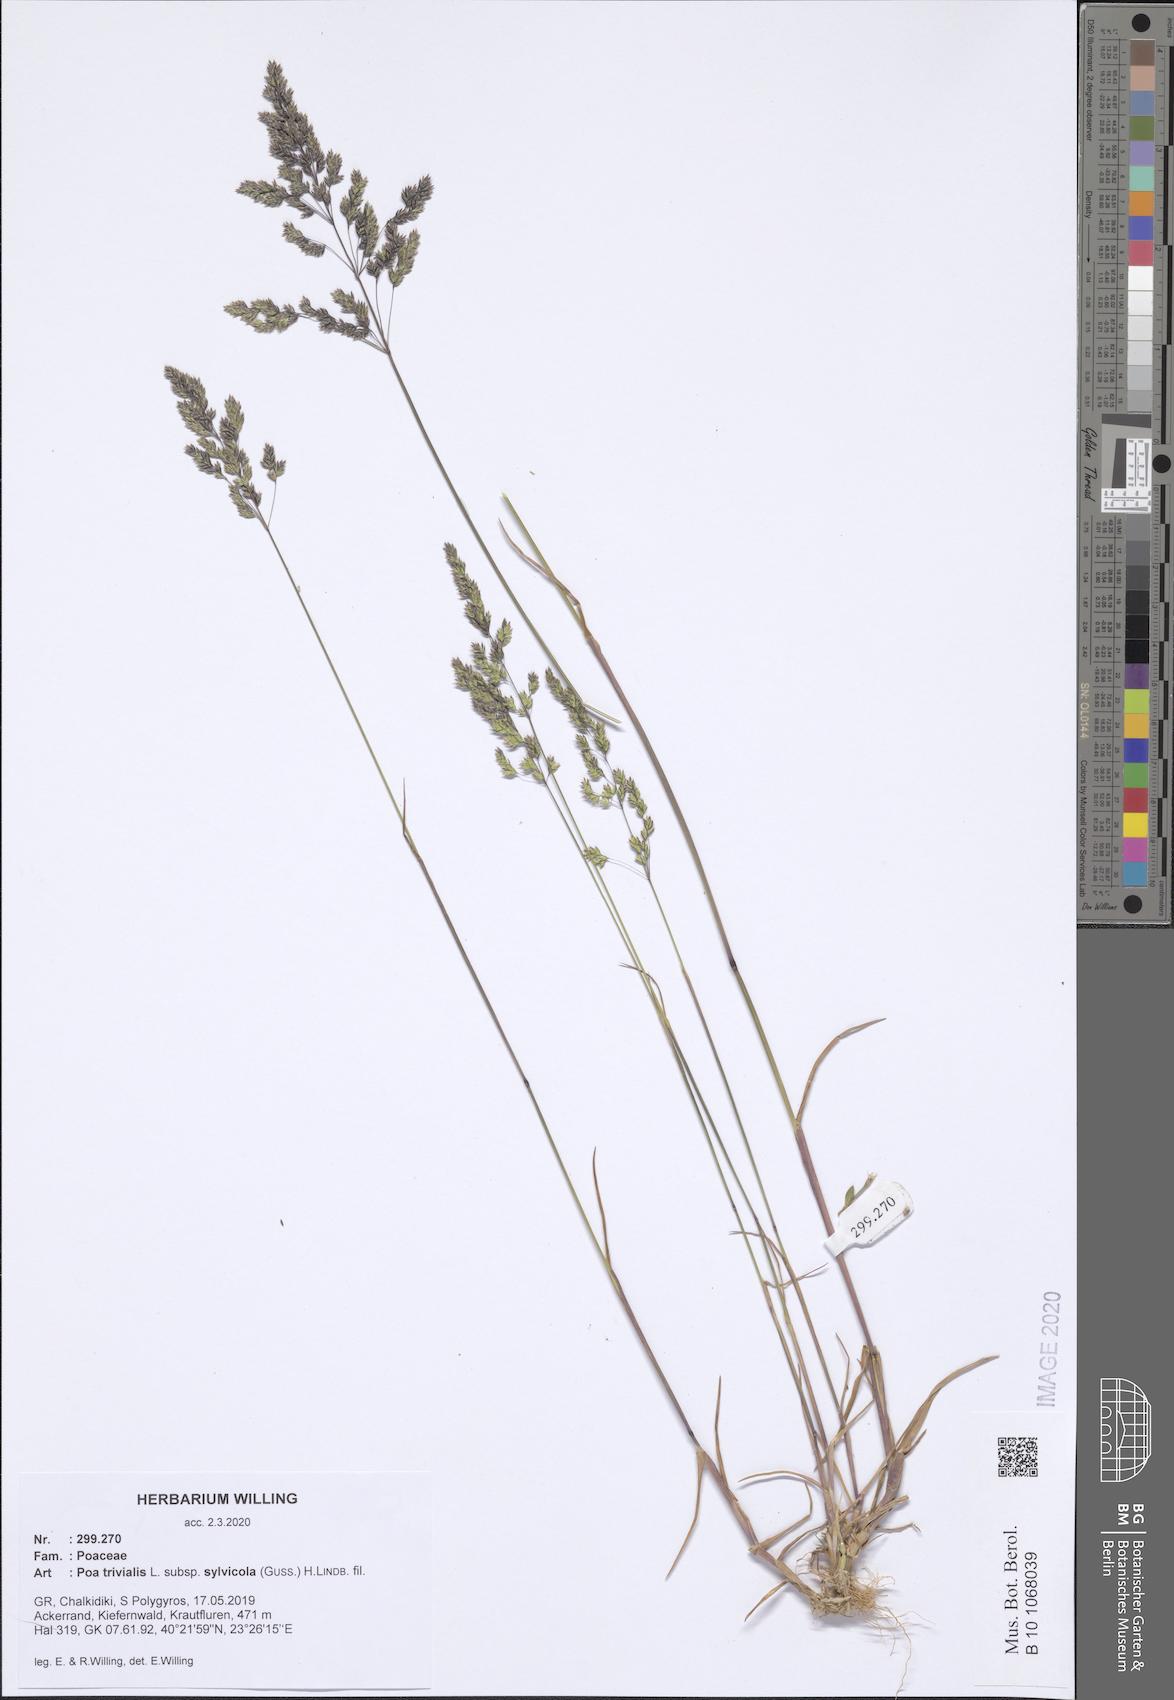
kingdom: Plantae
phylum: Tracheophyta
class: Liliopsida
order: Poales
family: Poaceae
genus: Poa
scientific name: Poa trivialis
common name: Rough bluegrass
